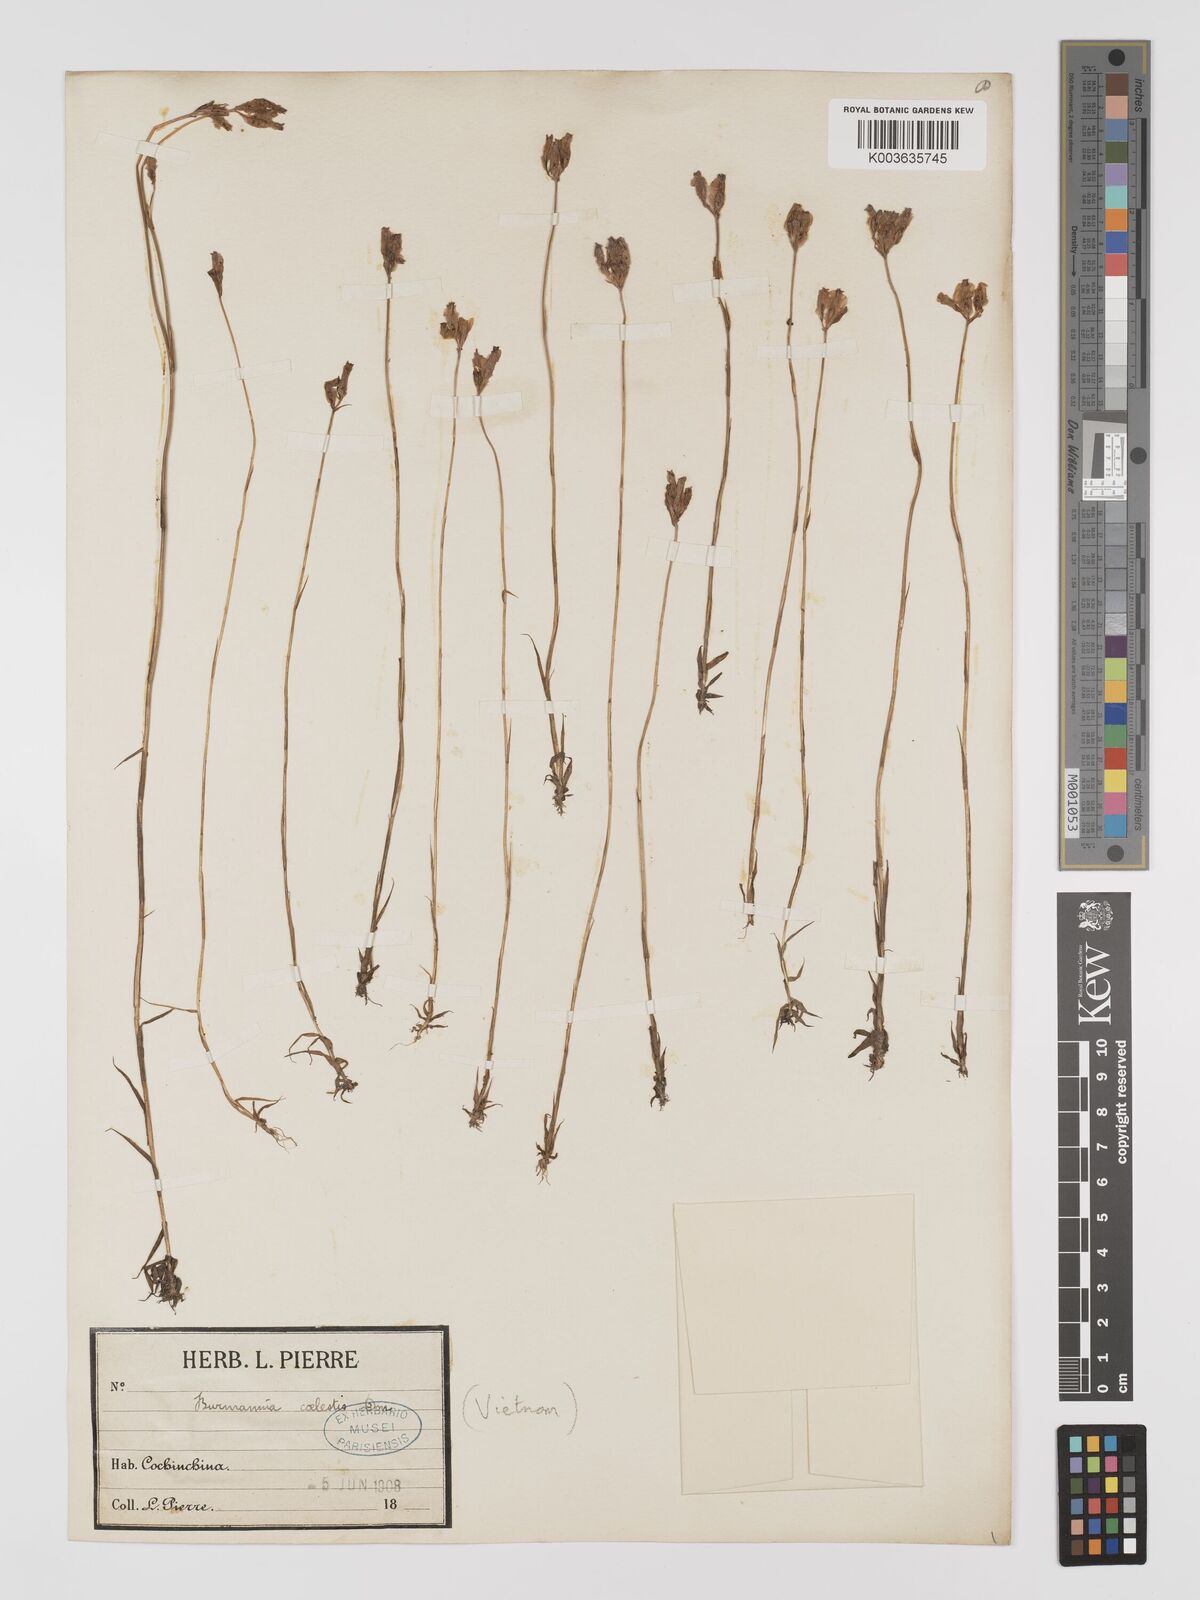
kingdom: Plantae
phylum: Tracheophyta
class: Liliopsida
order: Dioscoreales
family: Burmanniaceae
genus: Burmannia
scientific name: Burmannia coelestis
